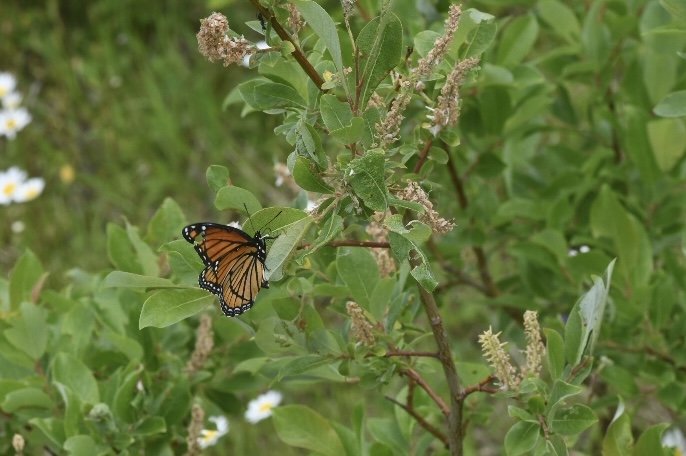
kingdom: Animalia
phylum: Arthropoda
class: Insecta
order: Lepidoptera
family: Nymphalidae
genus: Limenitis
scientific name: Limenitis archippus
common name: Viceroy
